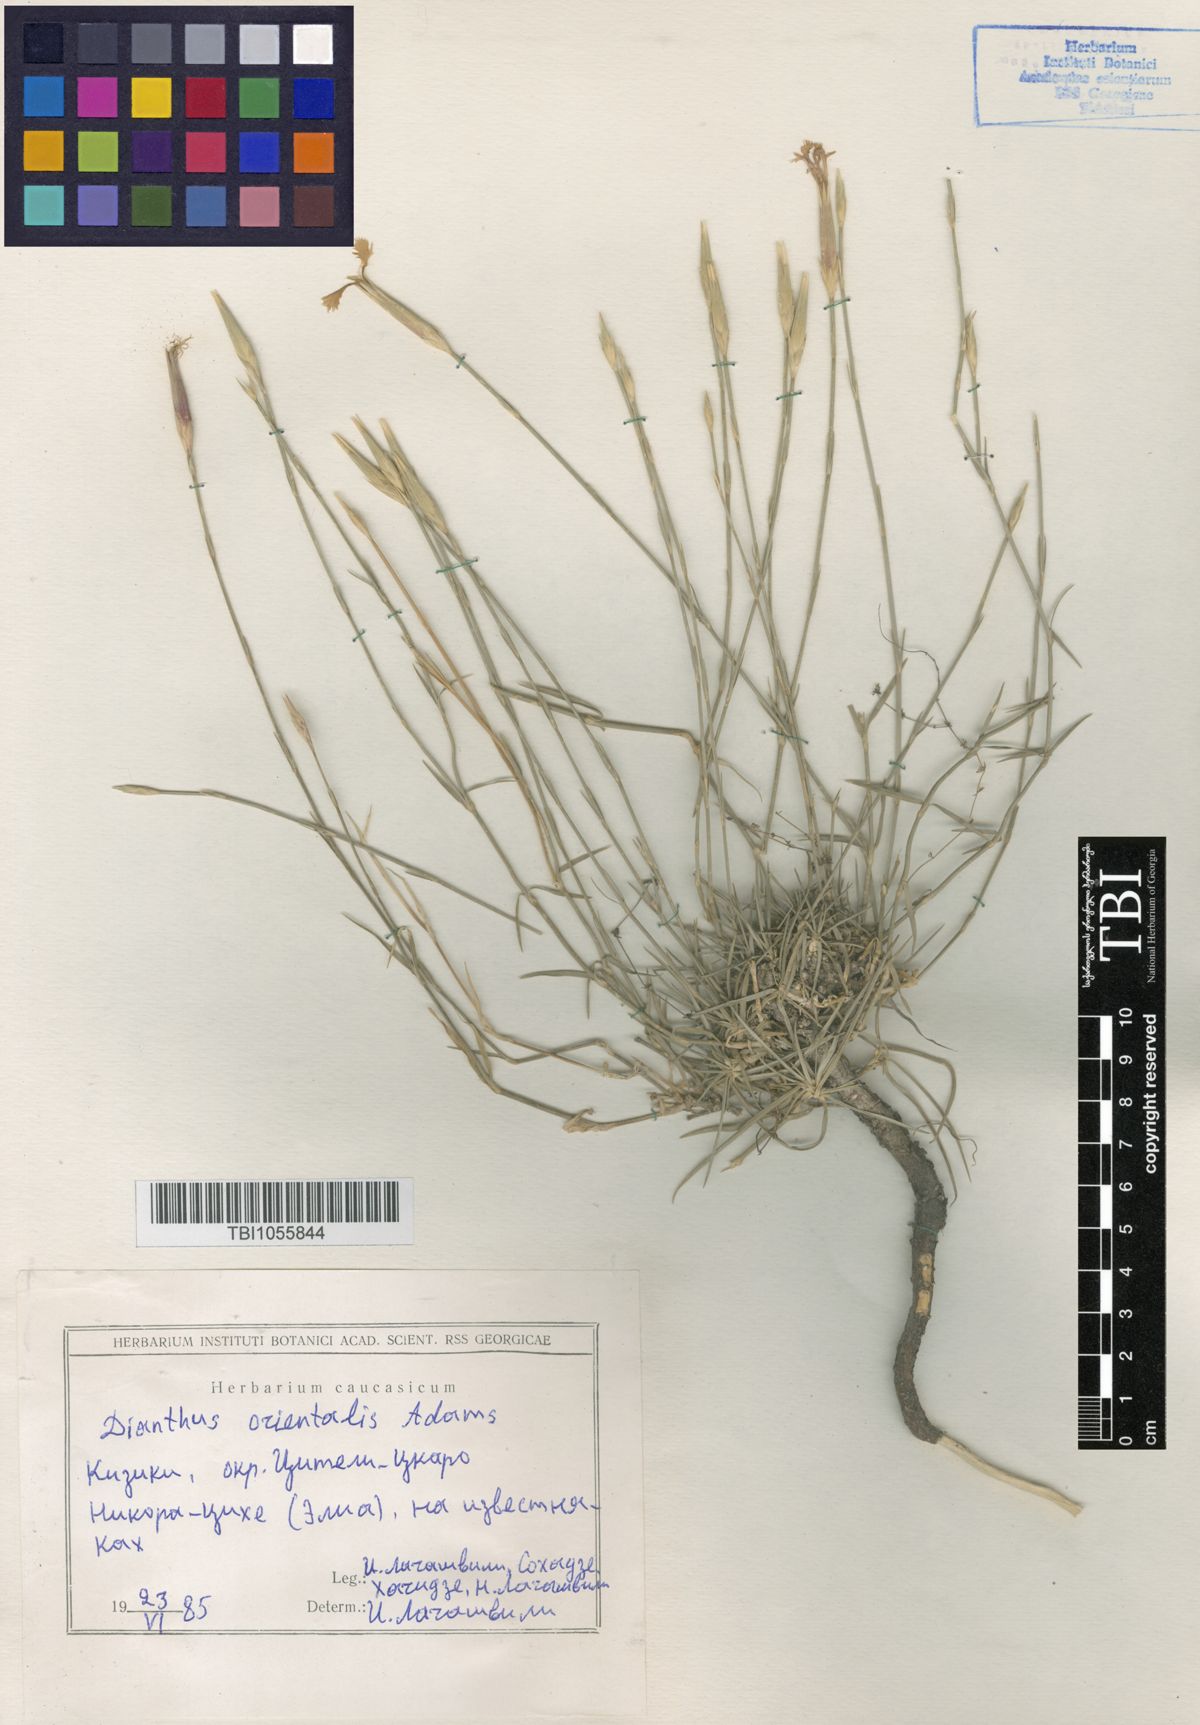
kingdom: Plantae
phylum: Tracheophyta
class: Magnoliopsida
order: Caryophyllales
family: Caryophyllaceae
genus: Dianthus
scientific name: Dianthus orientalis
